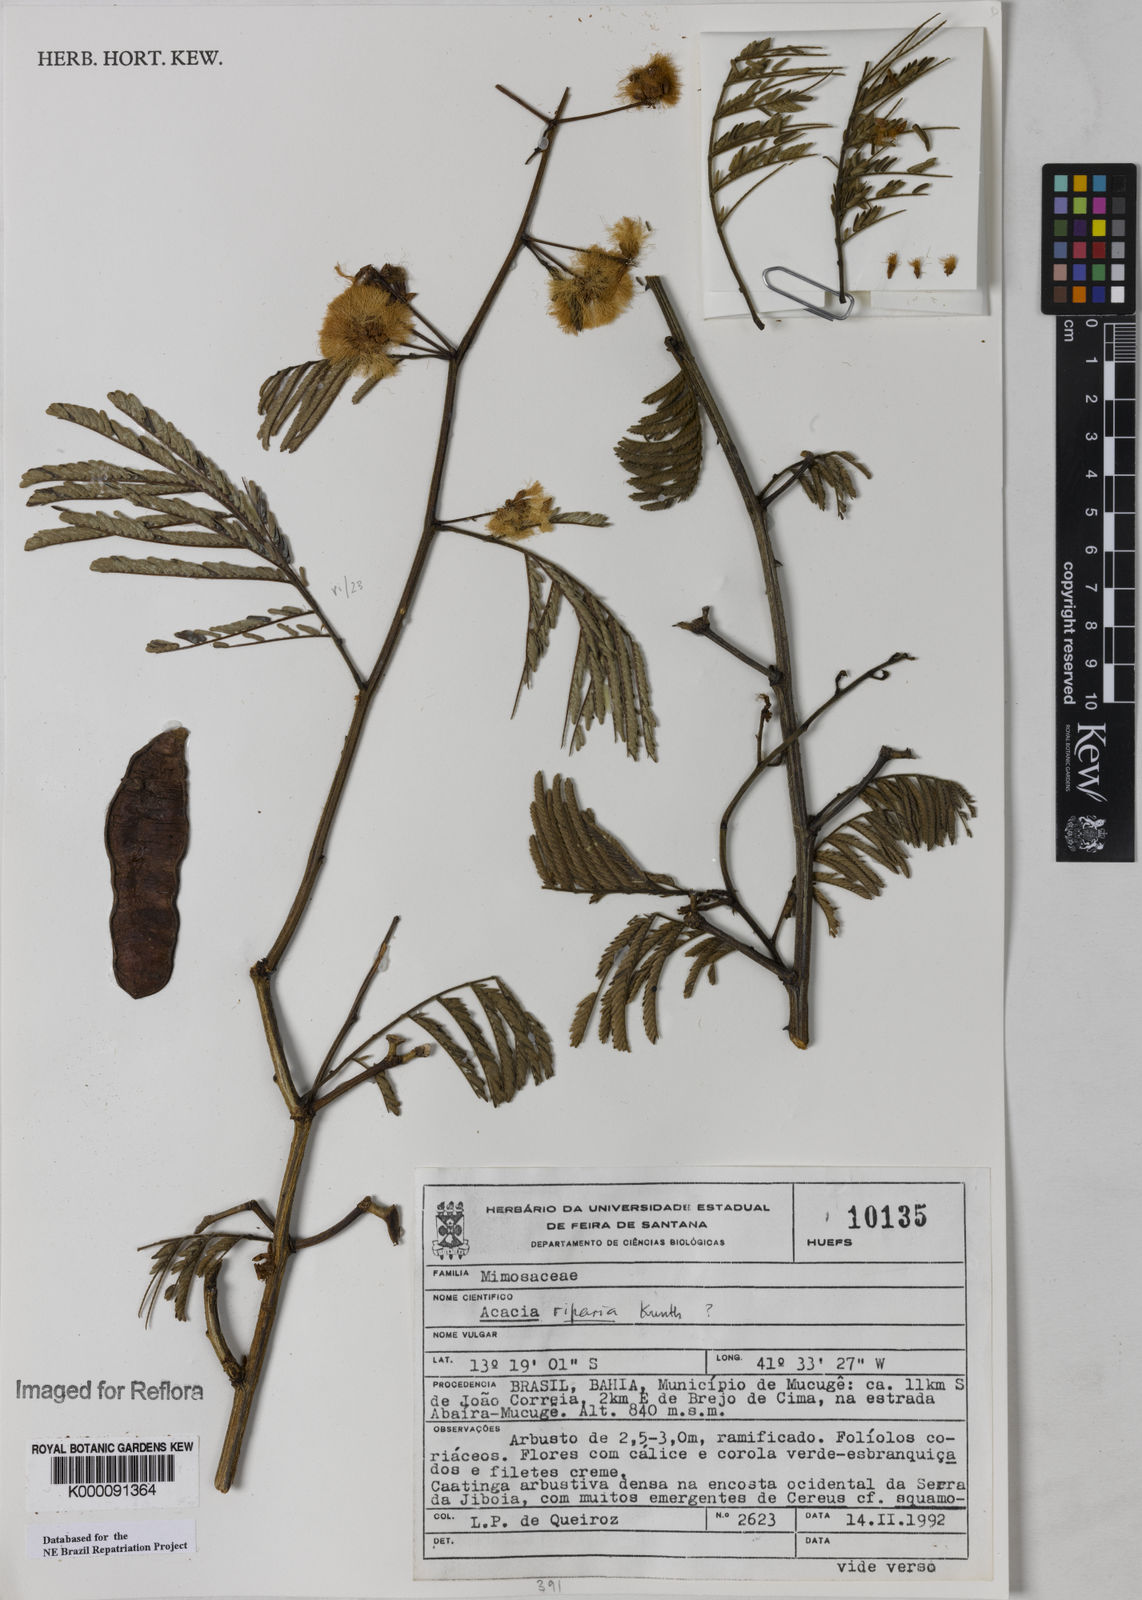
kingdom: Plantae
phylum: Tracheophyta
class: Magnoliopsida
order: Fabales
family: Fabaceae
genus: Senegalia
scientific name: Senegalia riparia
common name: Catch-and-keep
